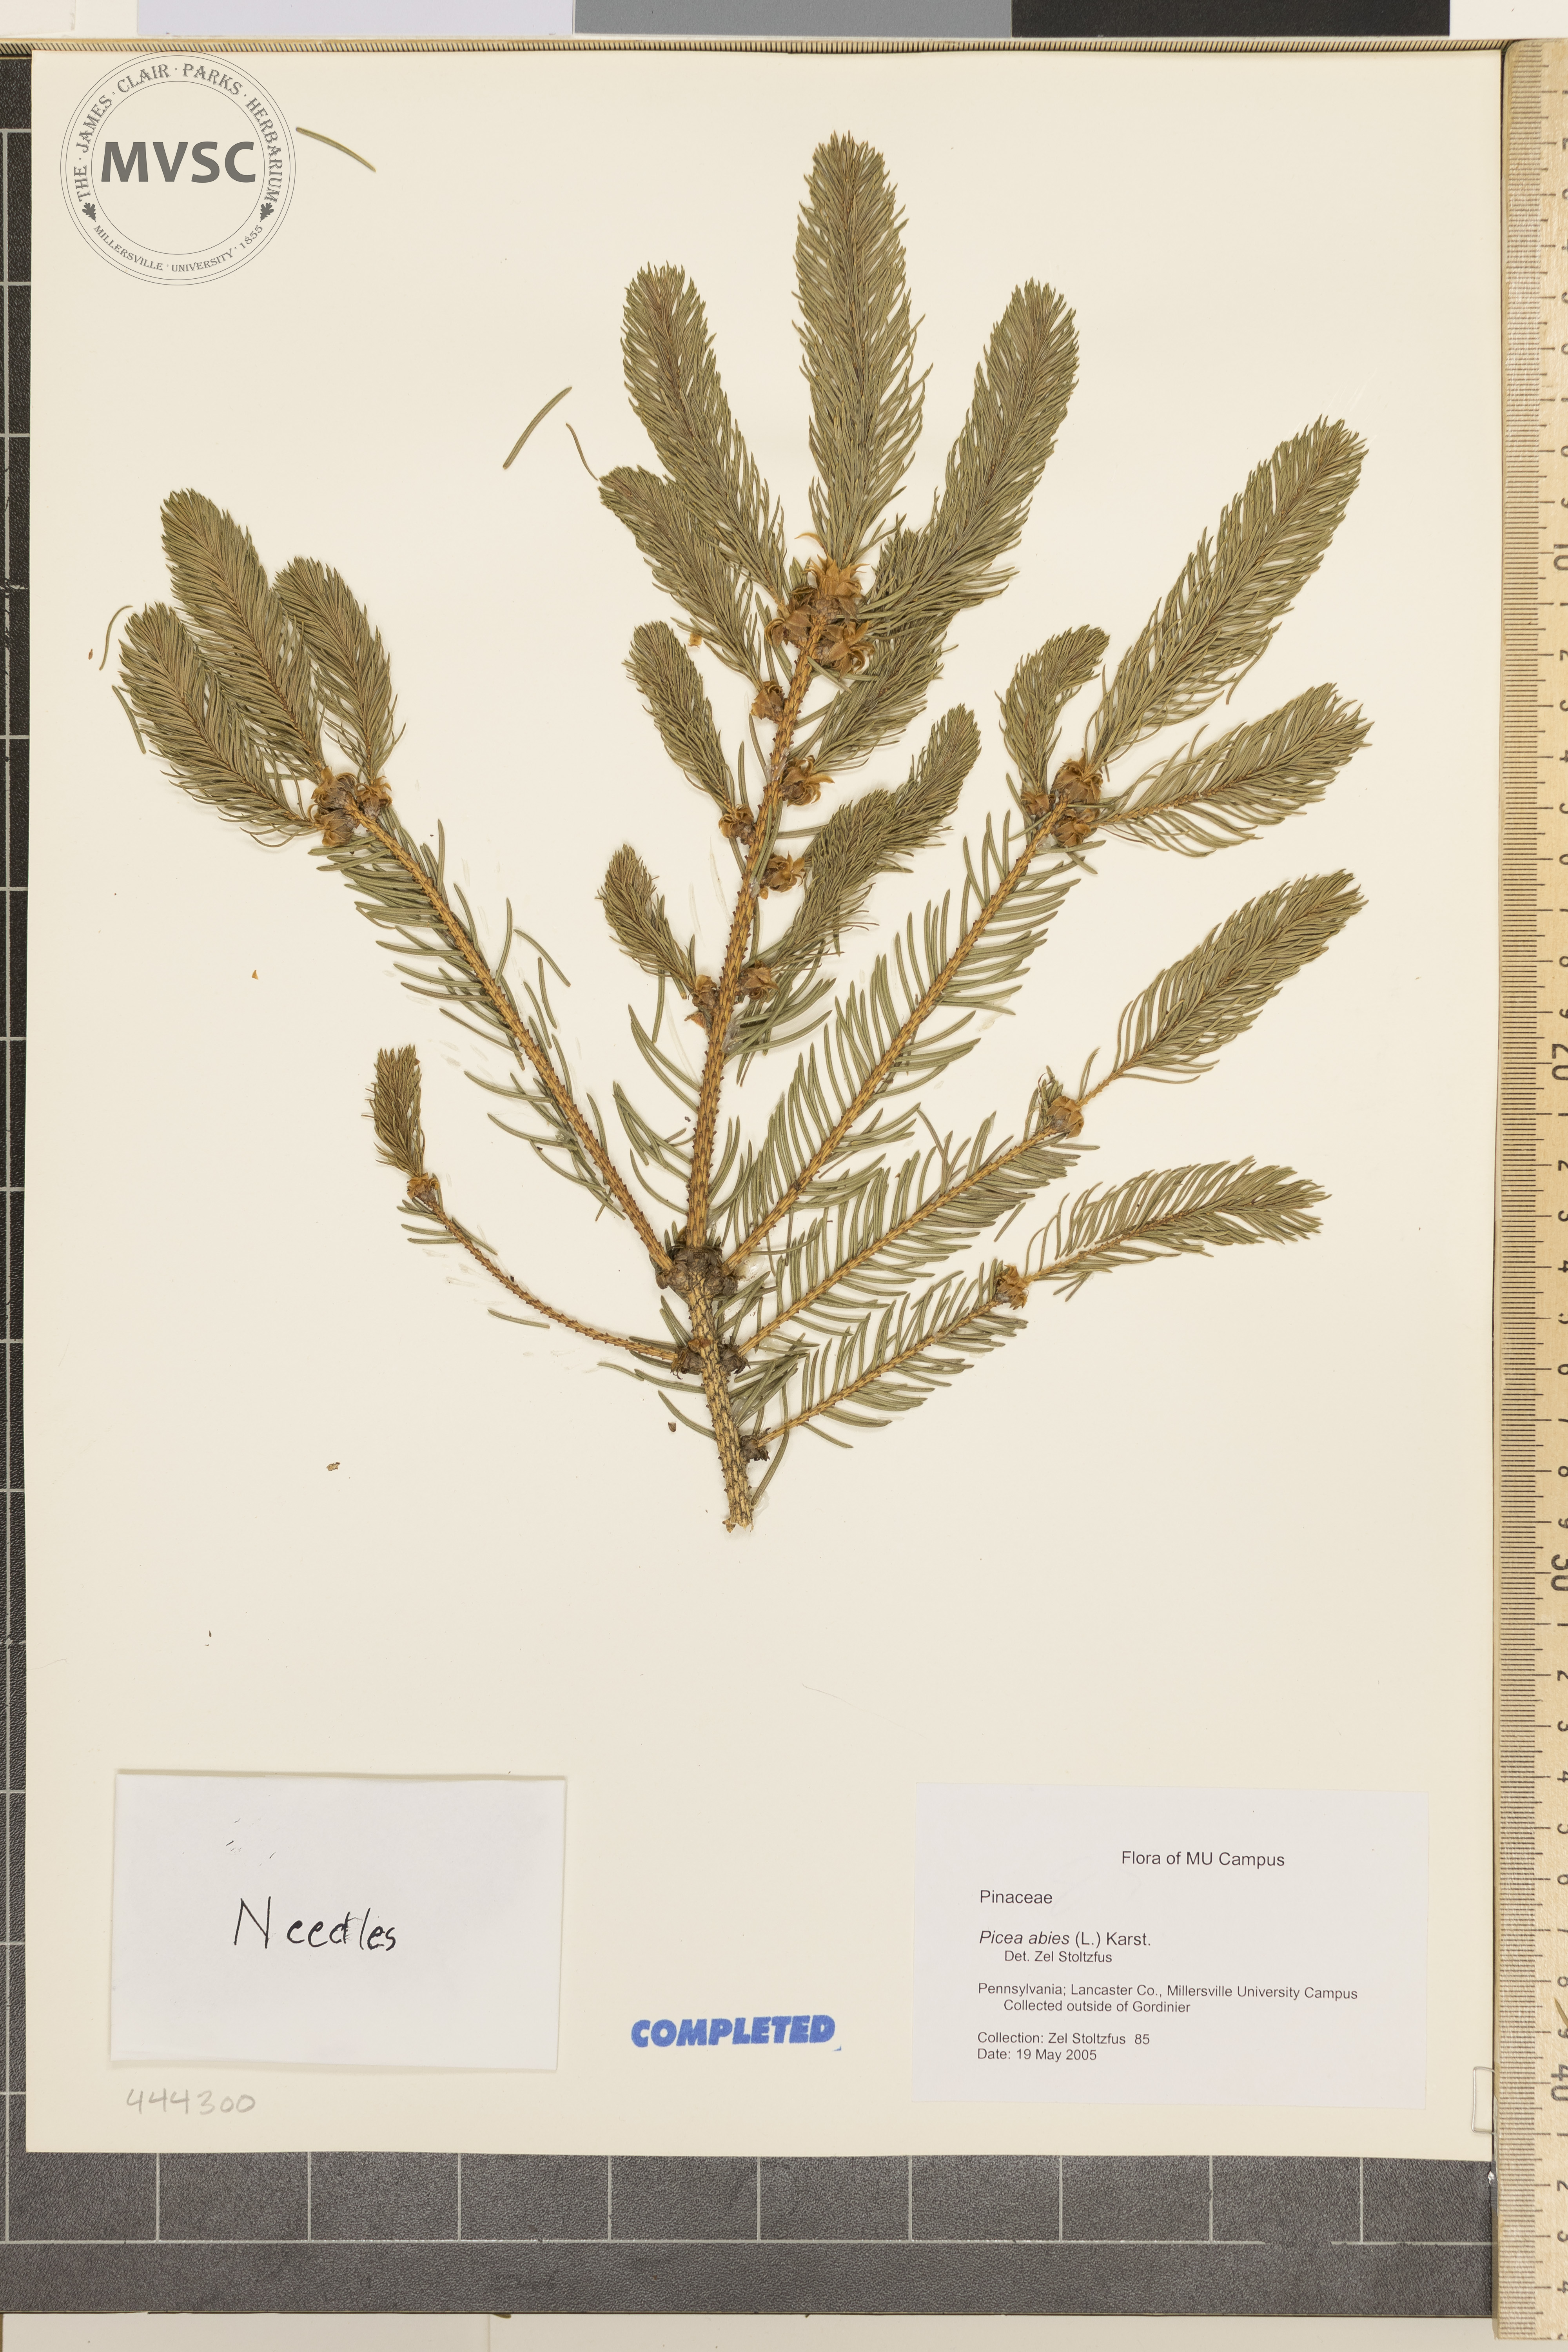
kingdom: Plantae
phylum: Tracheophyta
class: Pinopsida
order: Pinales
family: Pinaceae
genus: Picea
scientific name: Picea abies
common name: Norway Spruce
